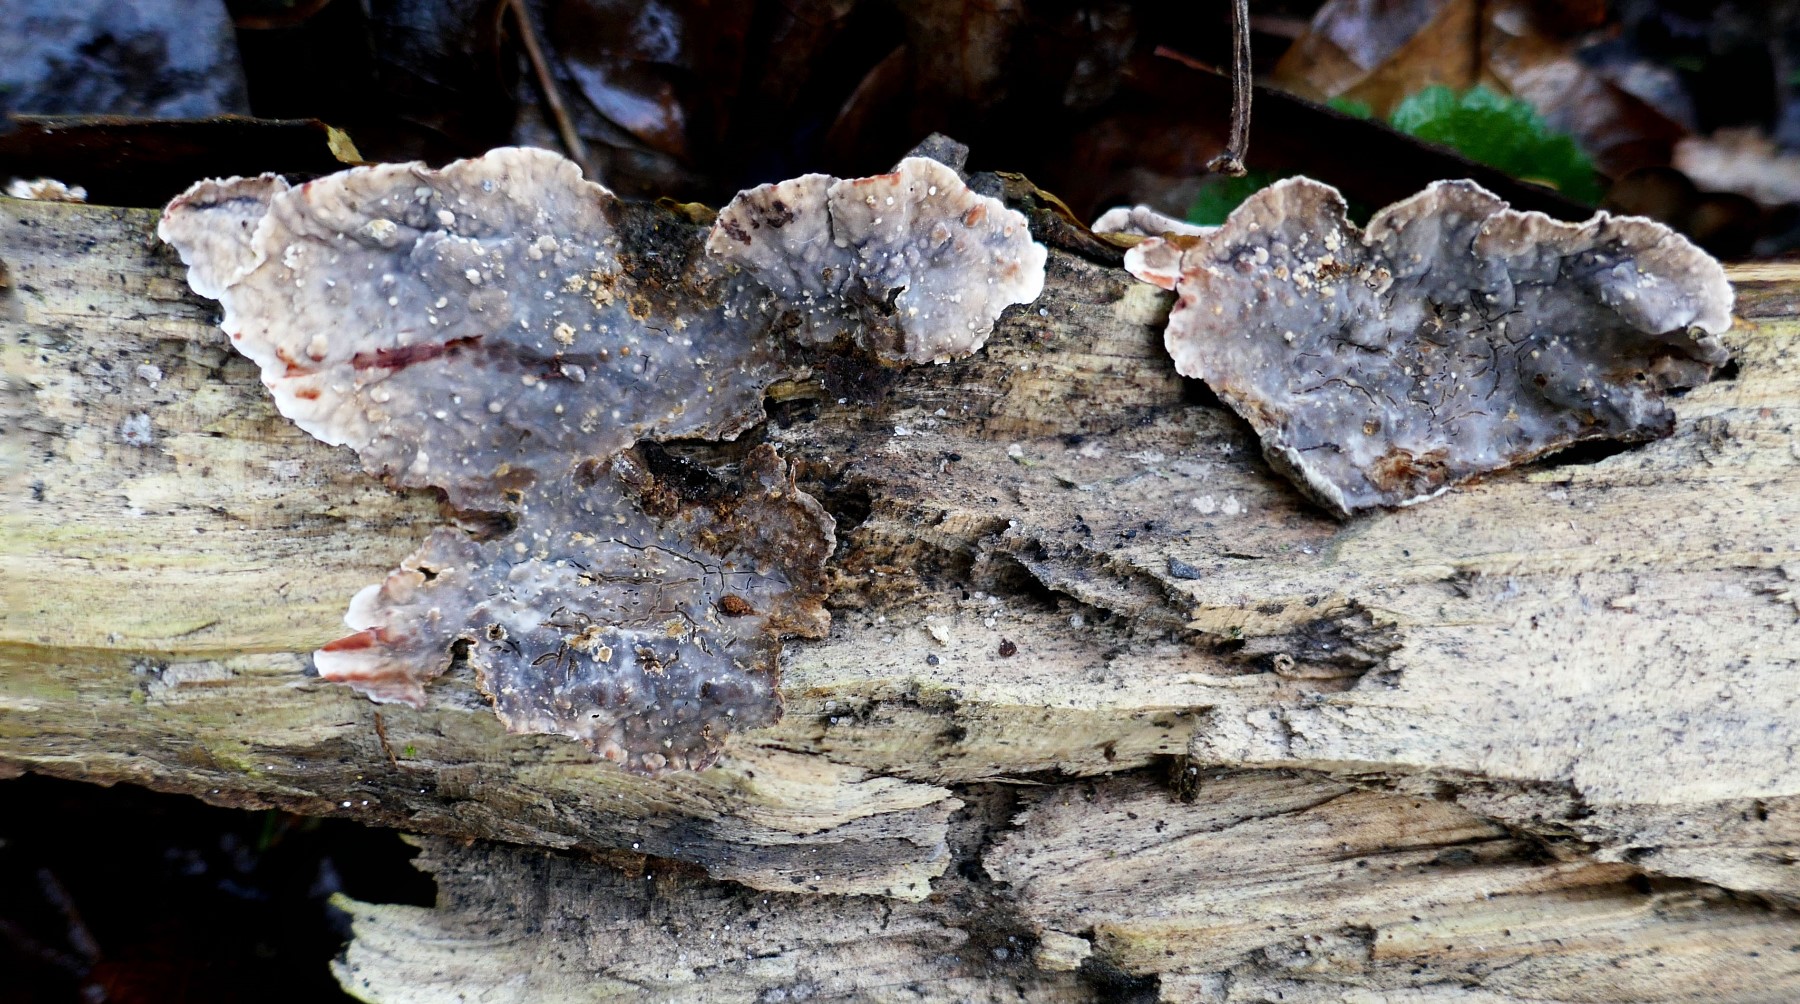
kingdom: Fungi
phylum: Basidiomycota
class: Agaricomycetes
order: Russulales
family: Stereaceae
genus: Stereum
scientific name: Stereum sanguinolentum
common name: blødende lædersvamp
